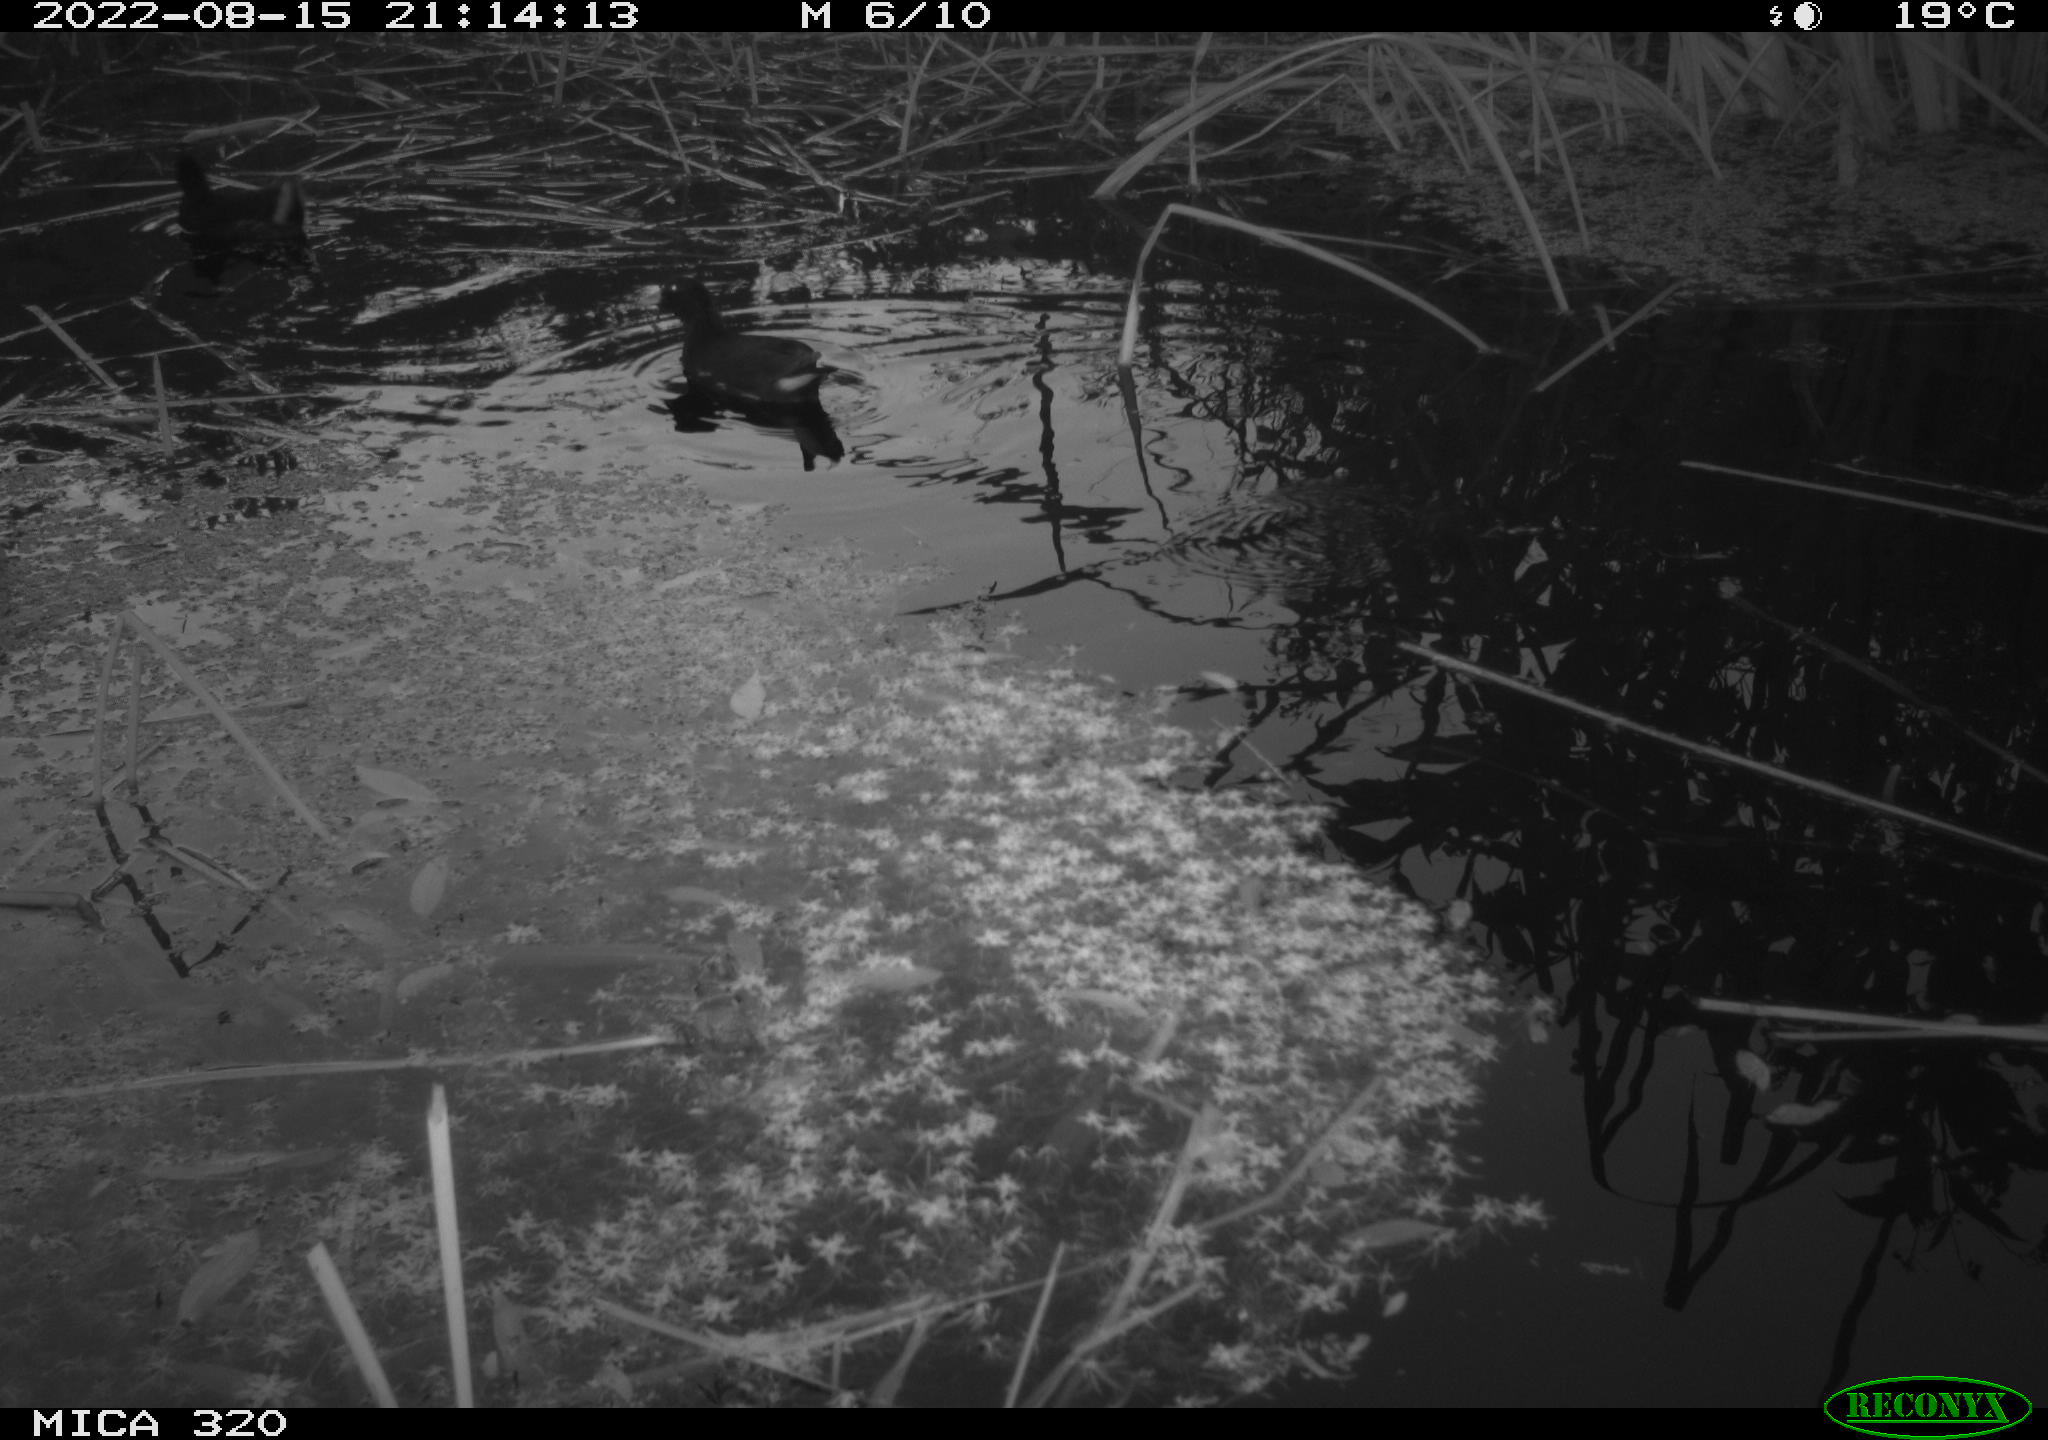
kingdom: Animalia
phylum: Chordata
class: Aves
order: Gruiformes
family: Rallidae
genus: Gallinula
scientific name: Gallinula chloropus
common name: Common moorhen
